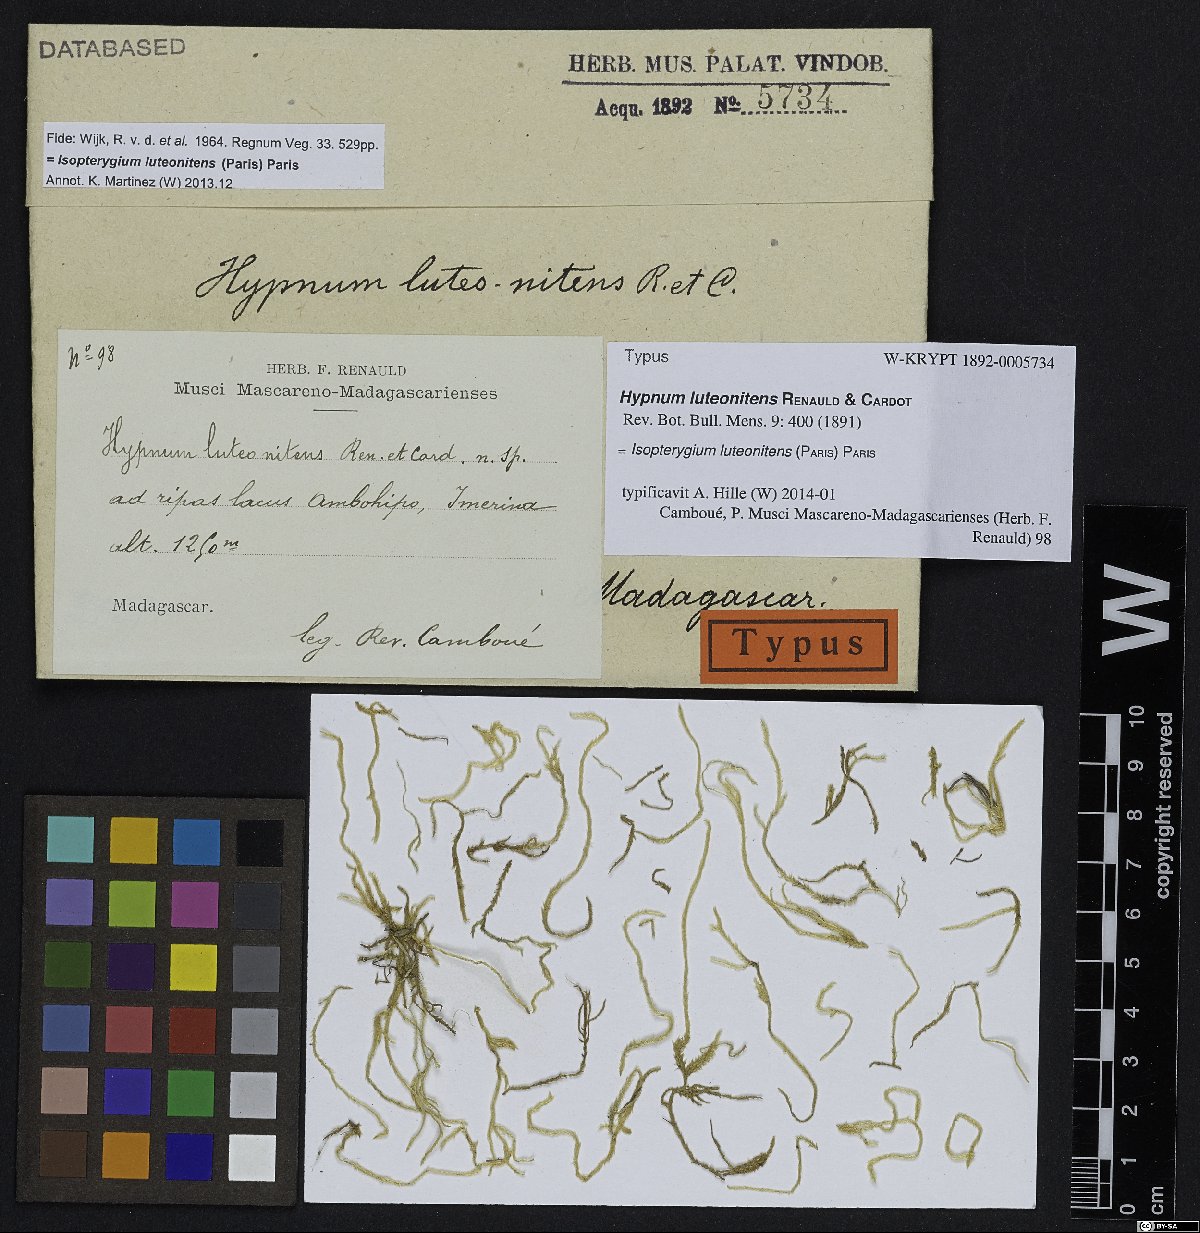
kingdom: Plantae
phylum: Bryophyta
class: Bryopsida
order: Hypnales
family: Pylaisiadelphaceae
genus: Isopterygium
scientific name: Isopterygium luteonitens
